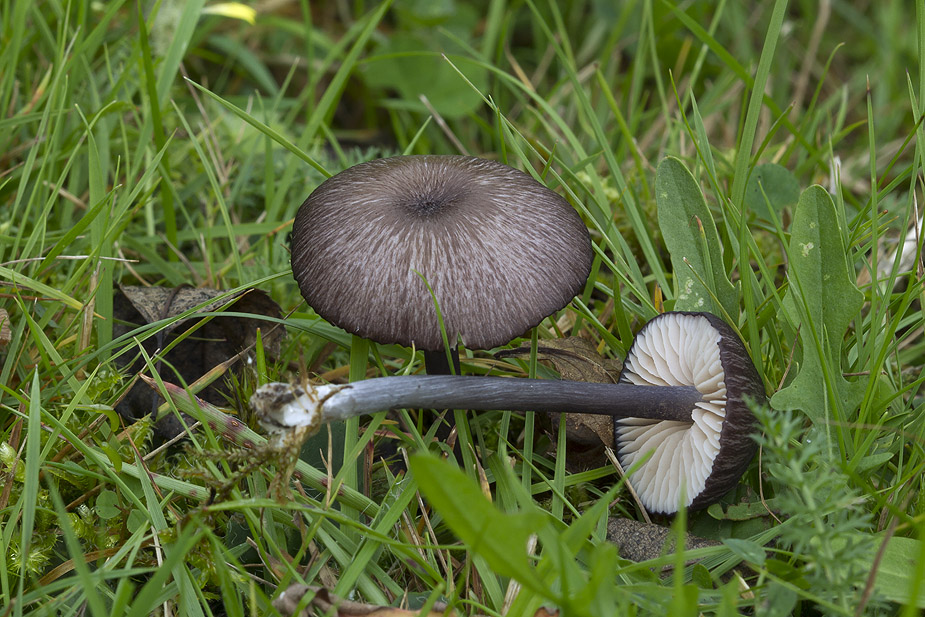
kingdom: Fungi
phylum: Basidiomycota
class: Agaricomycetes
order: Agaricales
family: Entolomataceae
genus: Entoloma
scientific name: Entoloma viiduense
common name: purpurbrun rødblad
